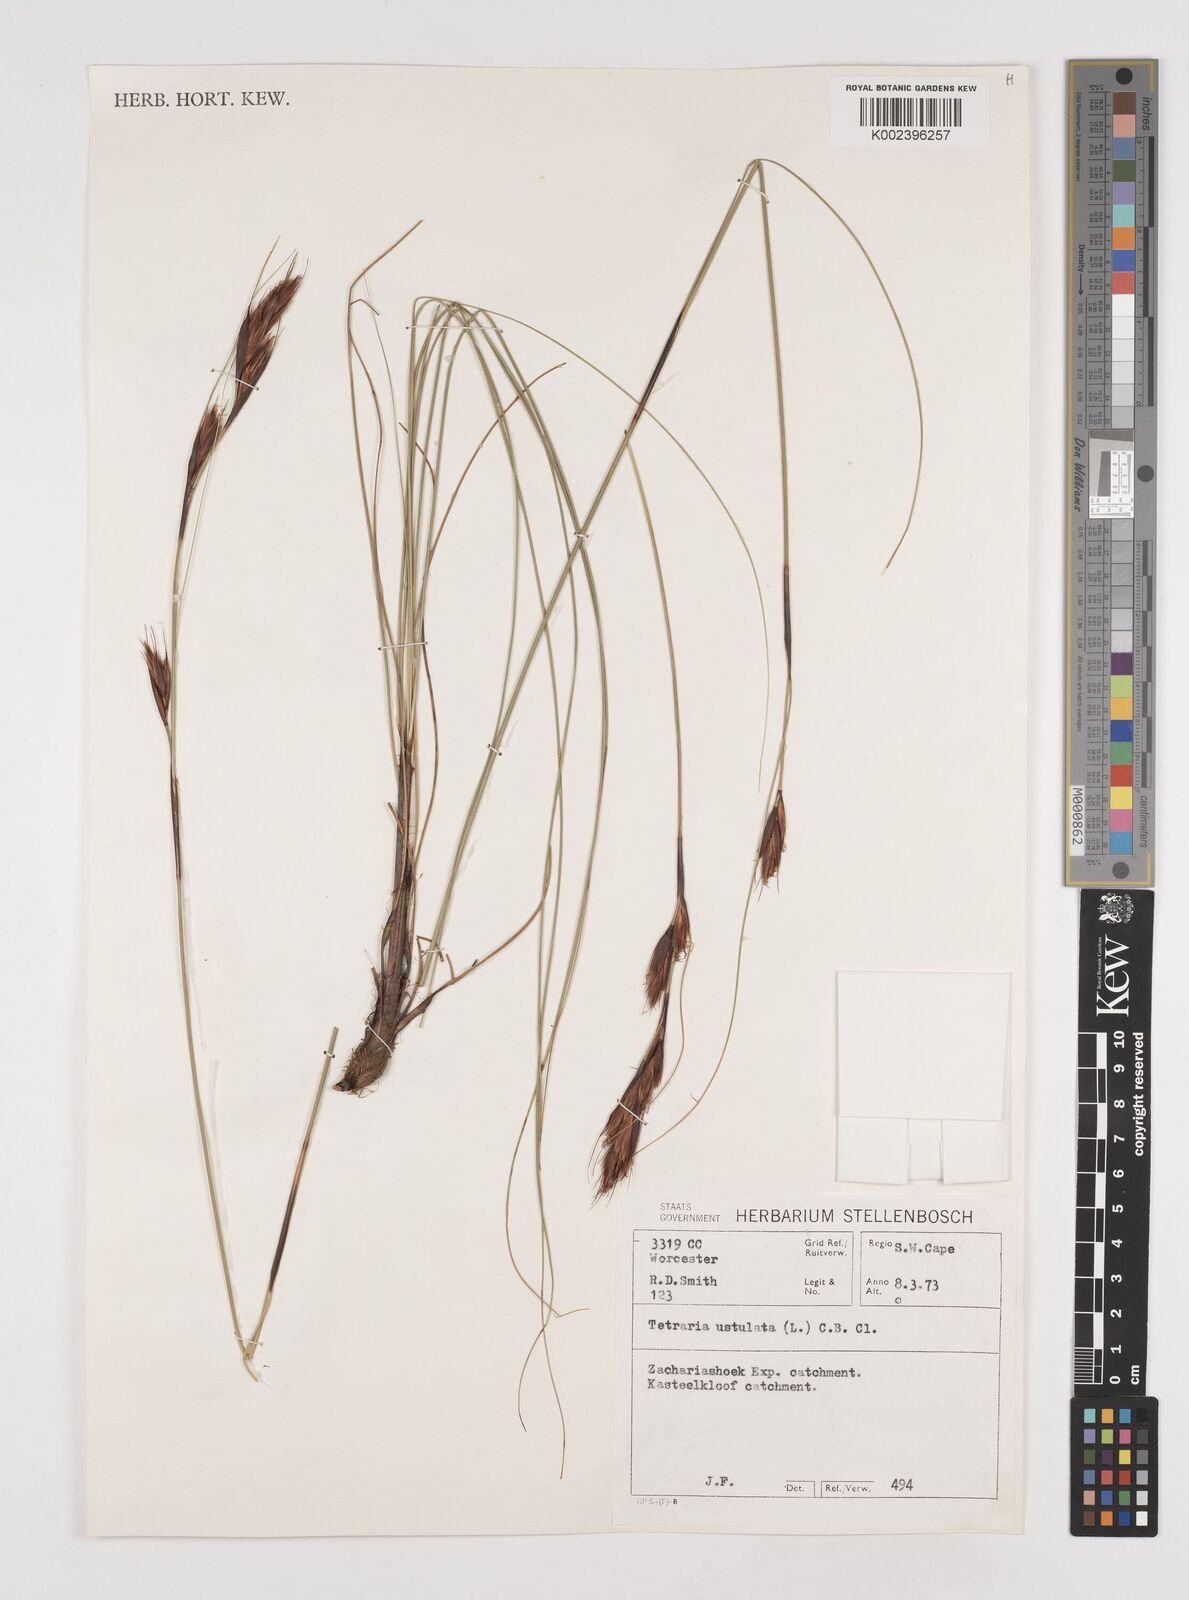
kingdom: Plantae
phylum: Tracheophyta
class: Liliopsida
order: Poales
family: Cyperaceae
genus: Tetraria
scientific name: Tetraria ustulata
